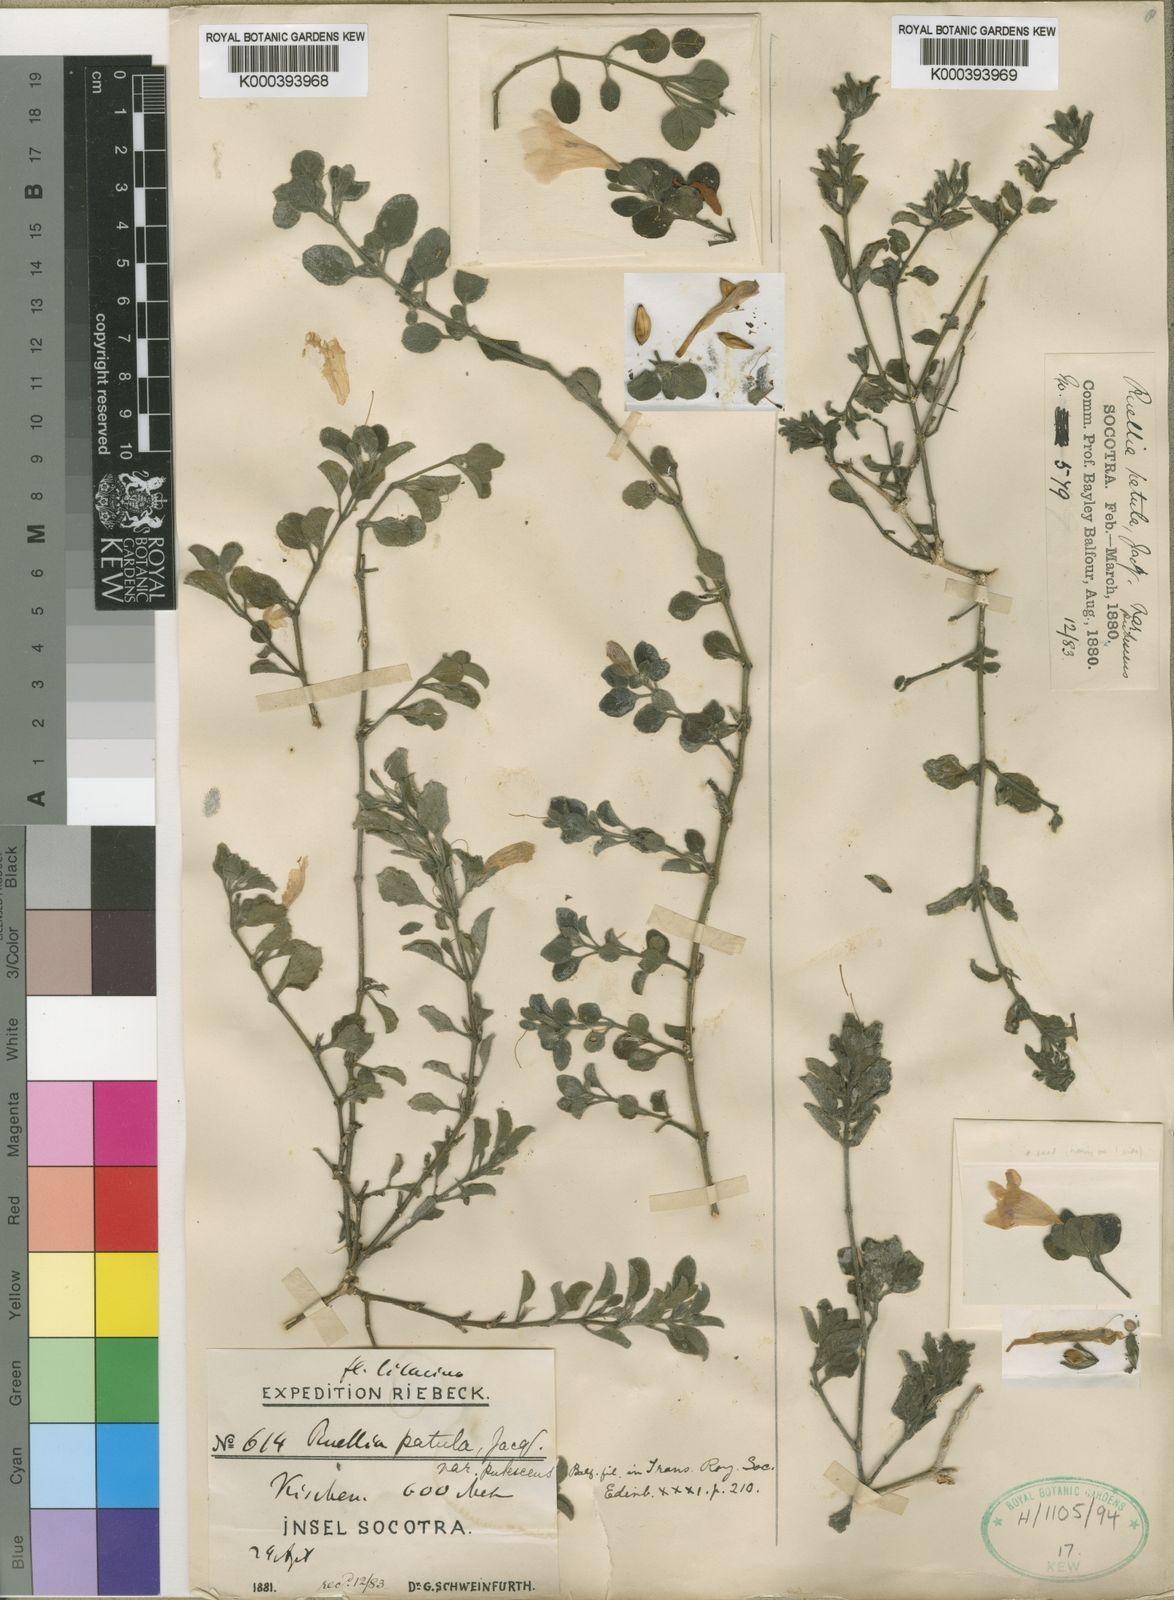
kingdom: Plantae
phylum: Tracheophyta
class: Magnoliopsida
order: Lamiales
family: Acanthaceae
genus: Ruellia
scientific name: Ruellia dioscoridis
